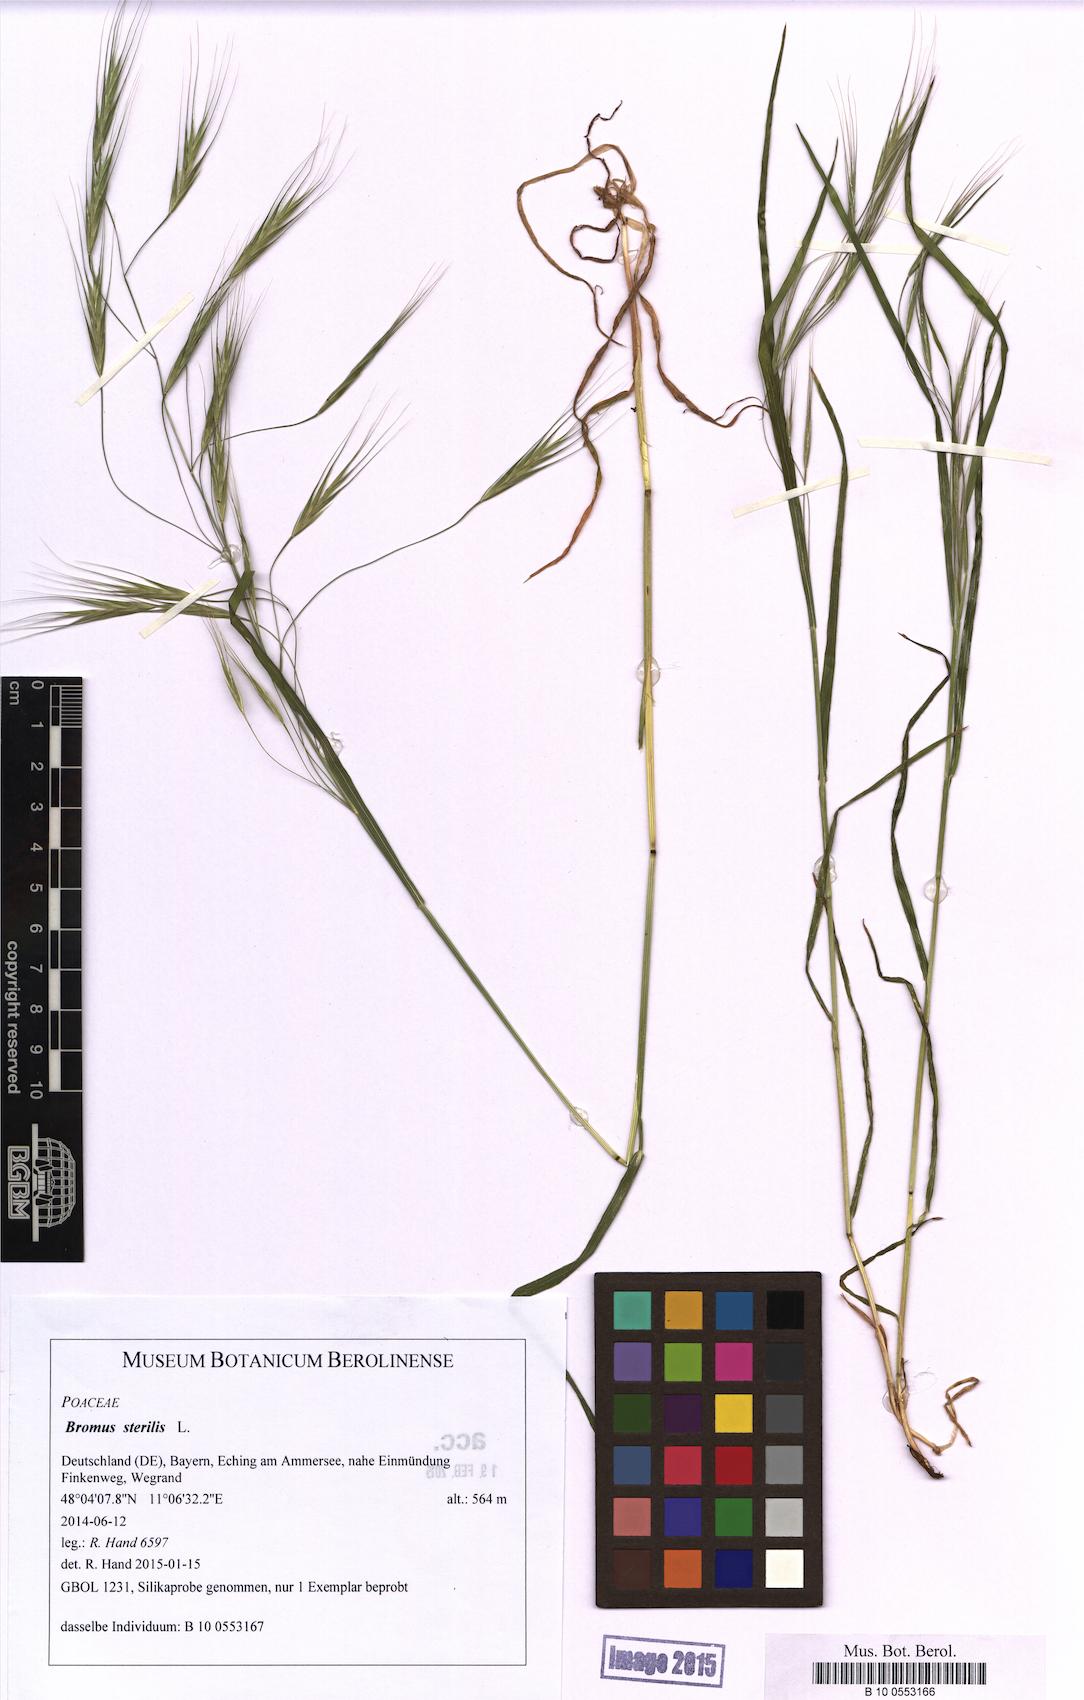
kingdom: Plantae
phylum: Tracheophyta
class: Liliopsida
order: Poales
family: Poaceae
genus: Bromus
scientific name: Bromus sterilis
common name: Poverty brome
